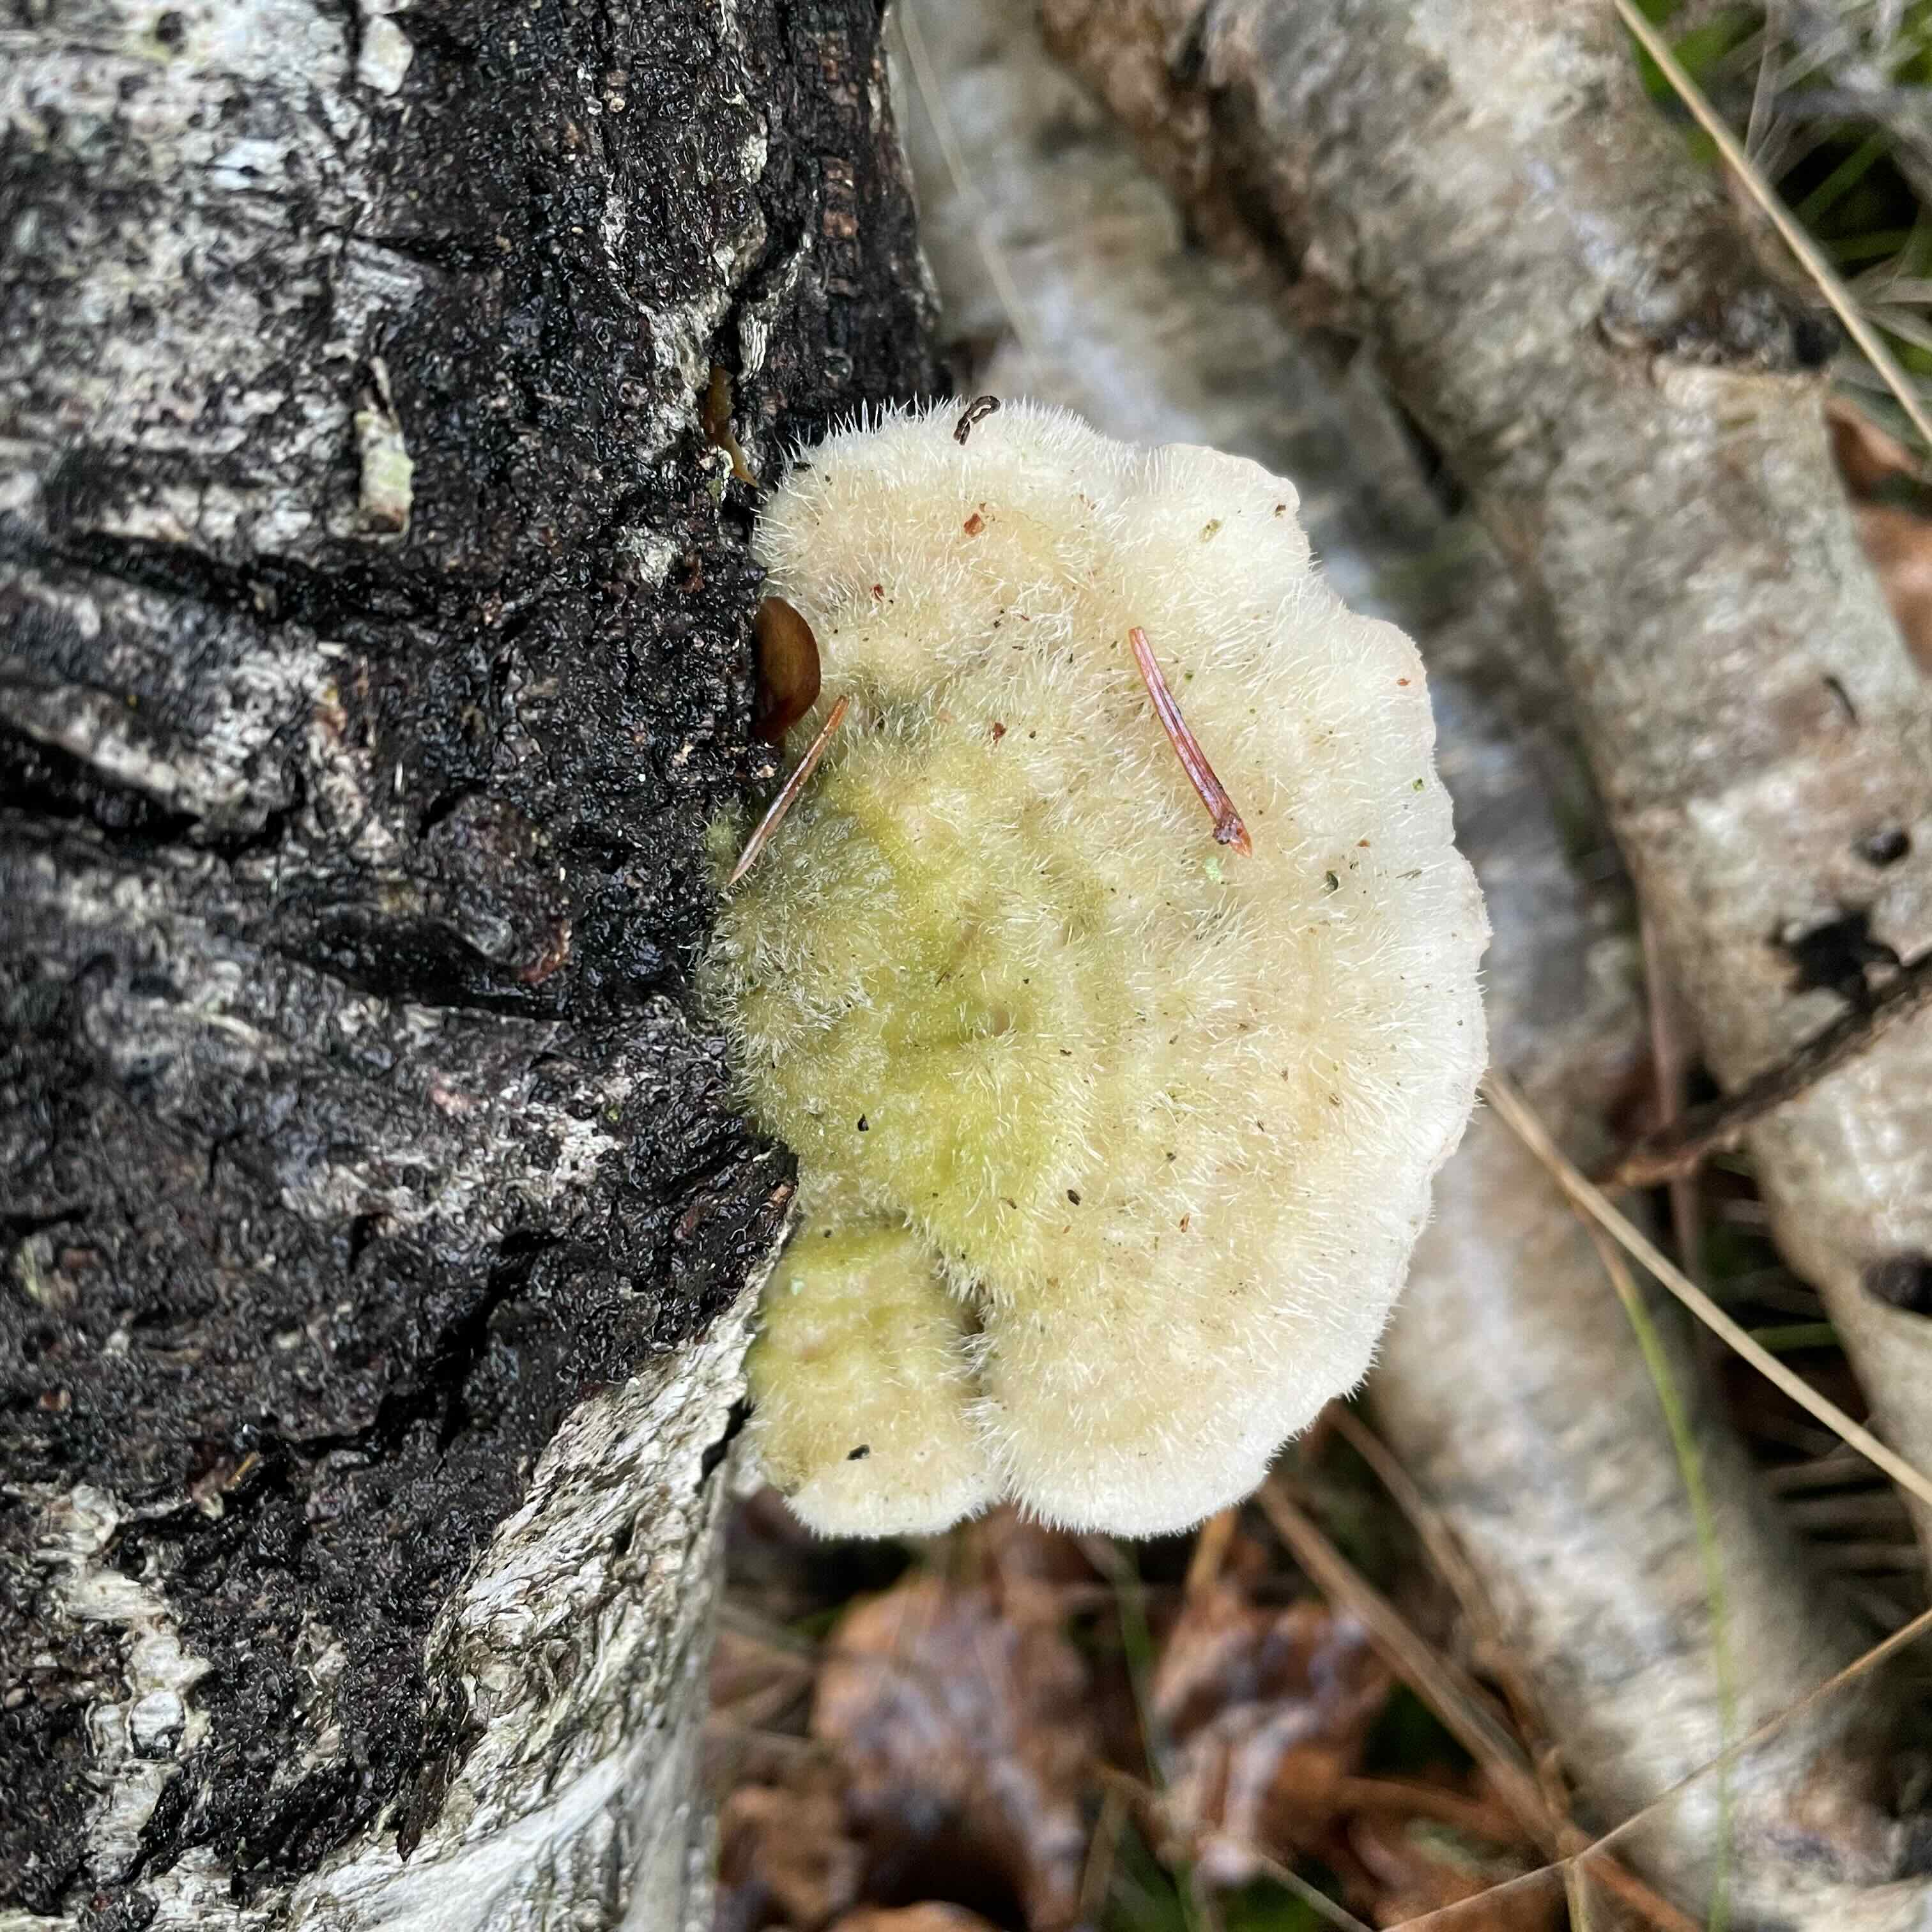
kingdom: Fungi
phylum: Basidiomycota
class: Agaricomycetes
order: Polyporales
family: Polyporaceae
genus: Trametes
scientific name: Trametes hirsuta
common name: håret læderporesvamp
